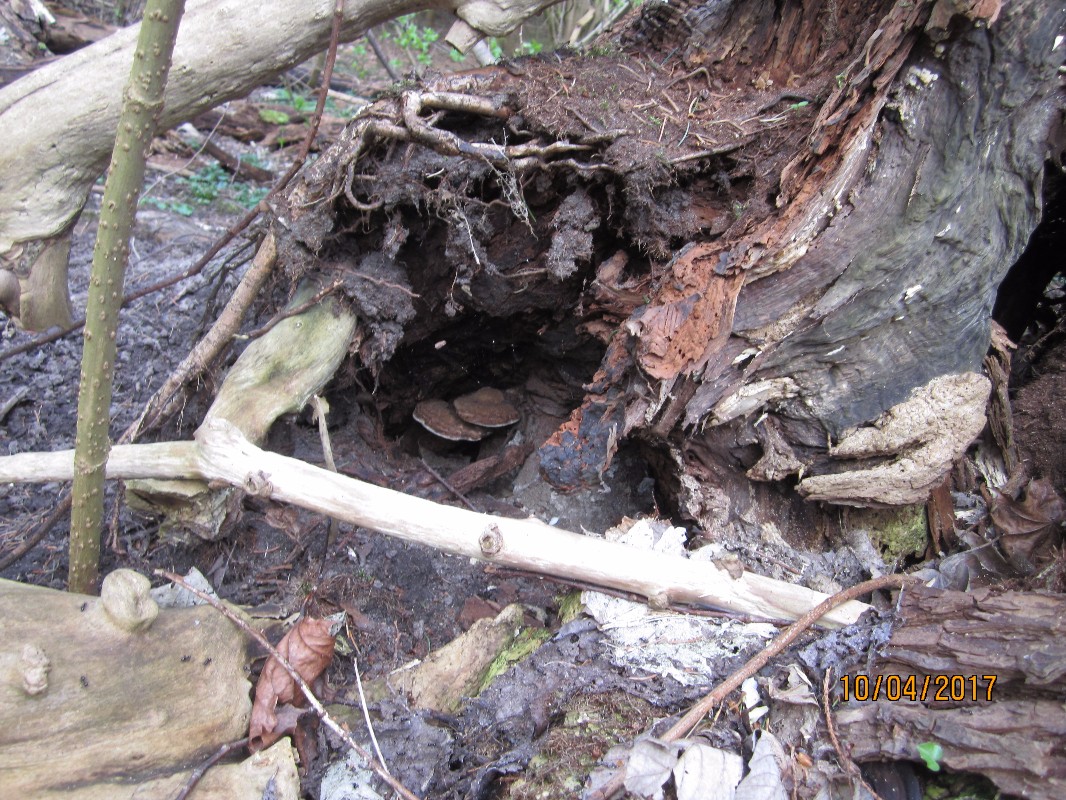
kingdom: Fungi
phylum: Basidiomycota
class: Agaricomycetes
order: Polyporales
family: Polyporaceae
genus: Ganoderma
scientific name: Ganoderma applanatum
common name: flad lakporesvamp
